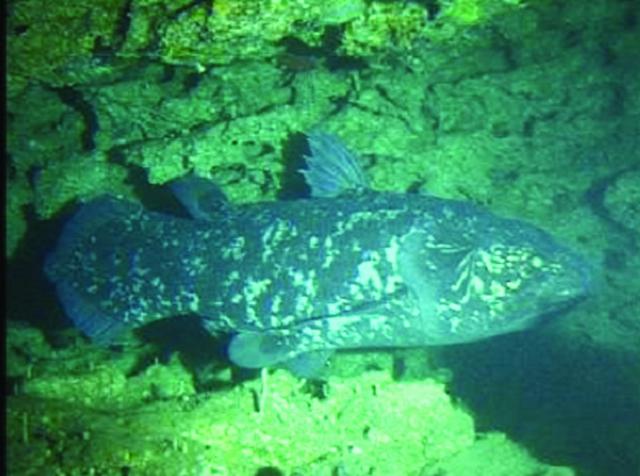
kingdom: Animalia
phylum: Chordata
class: Coelacanthi
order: Coelacanthiformes
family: Latimeriidae
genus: Latimeria
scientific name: Latimeria chalumnae
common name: Coelacanth
